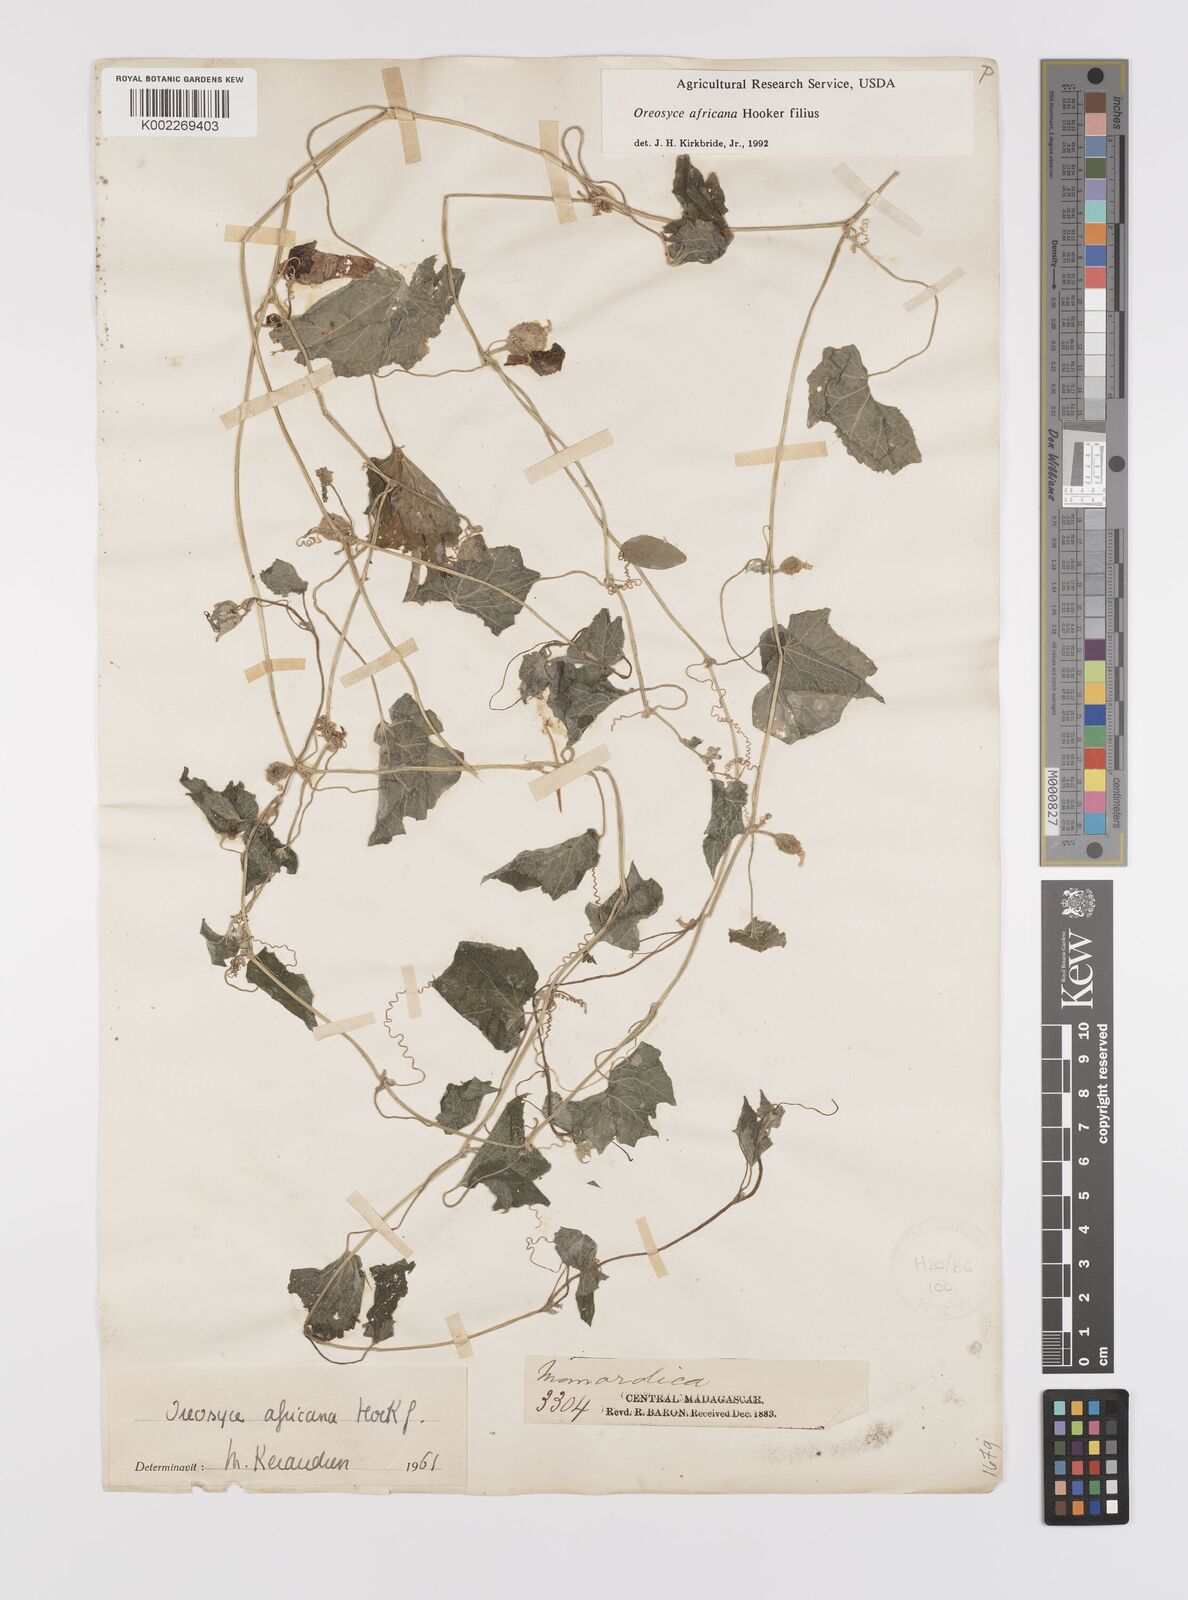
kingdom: Plantae
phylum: Tracheophyta
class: Magnoliopsida
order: Cucurbitales
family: Cucurbitaceae
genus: Cucumis
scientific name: Cucumis oreosyce
